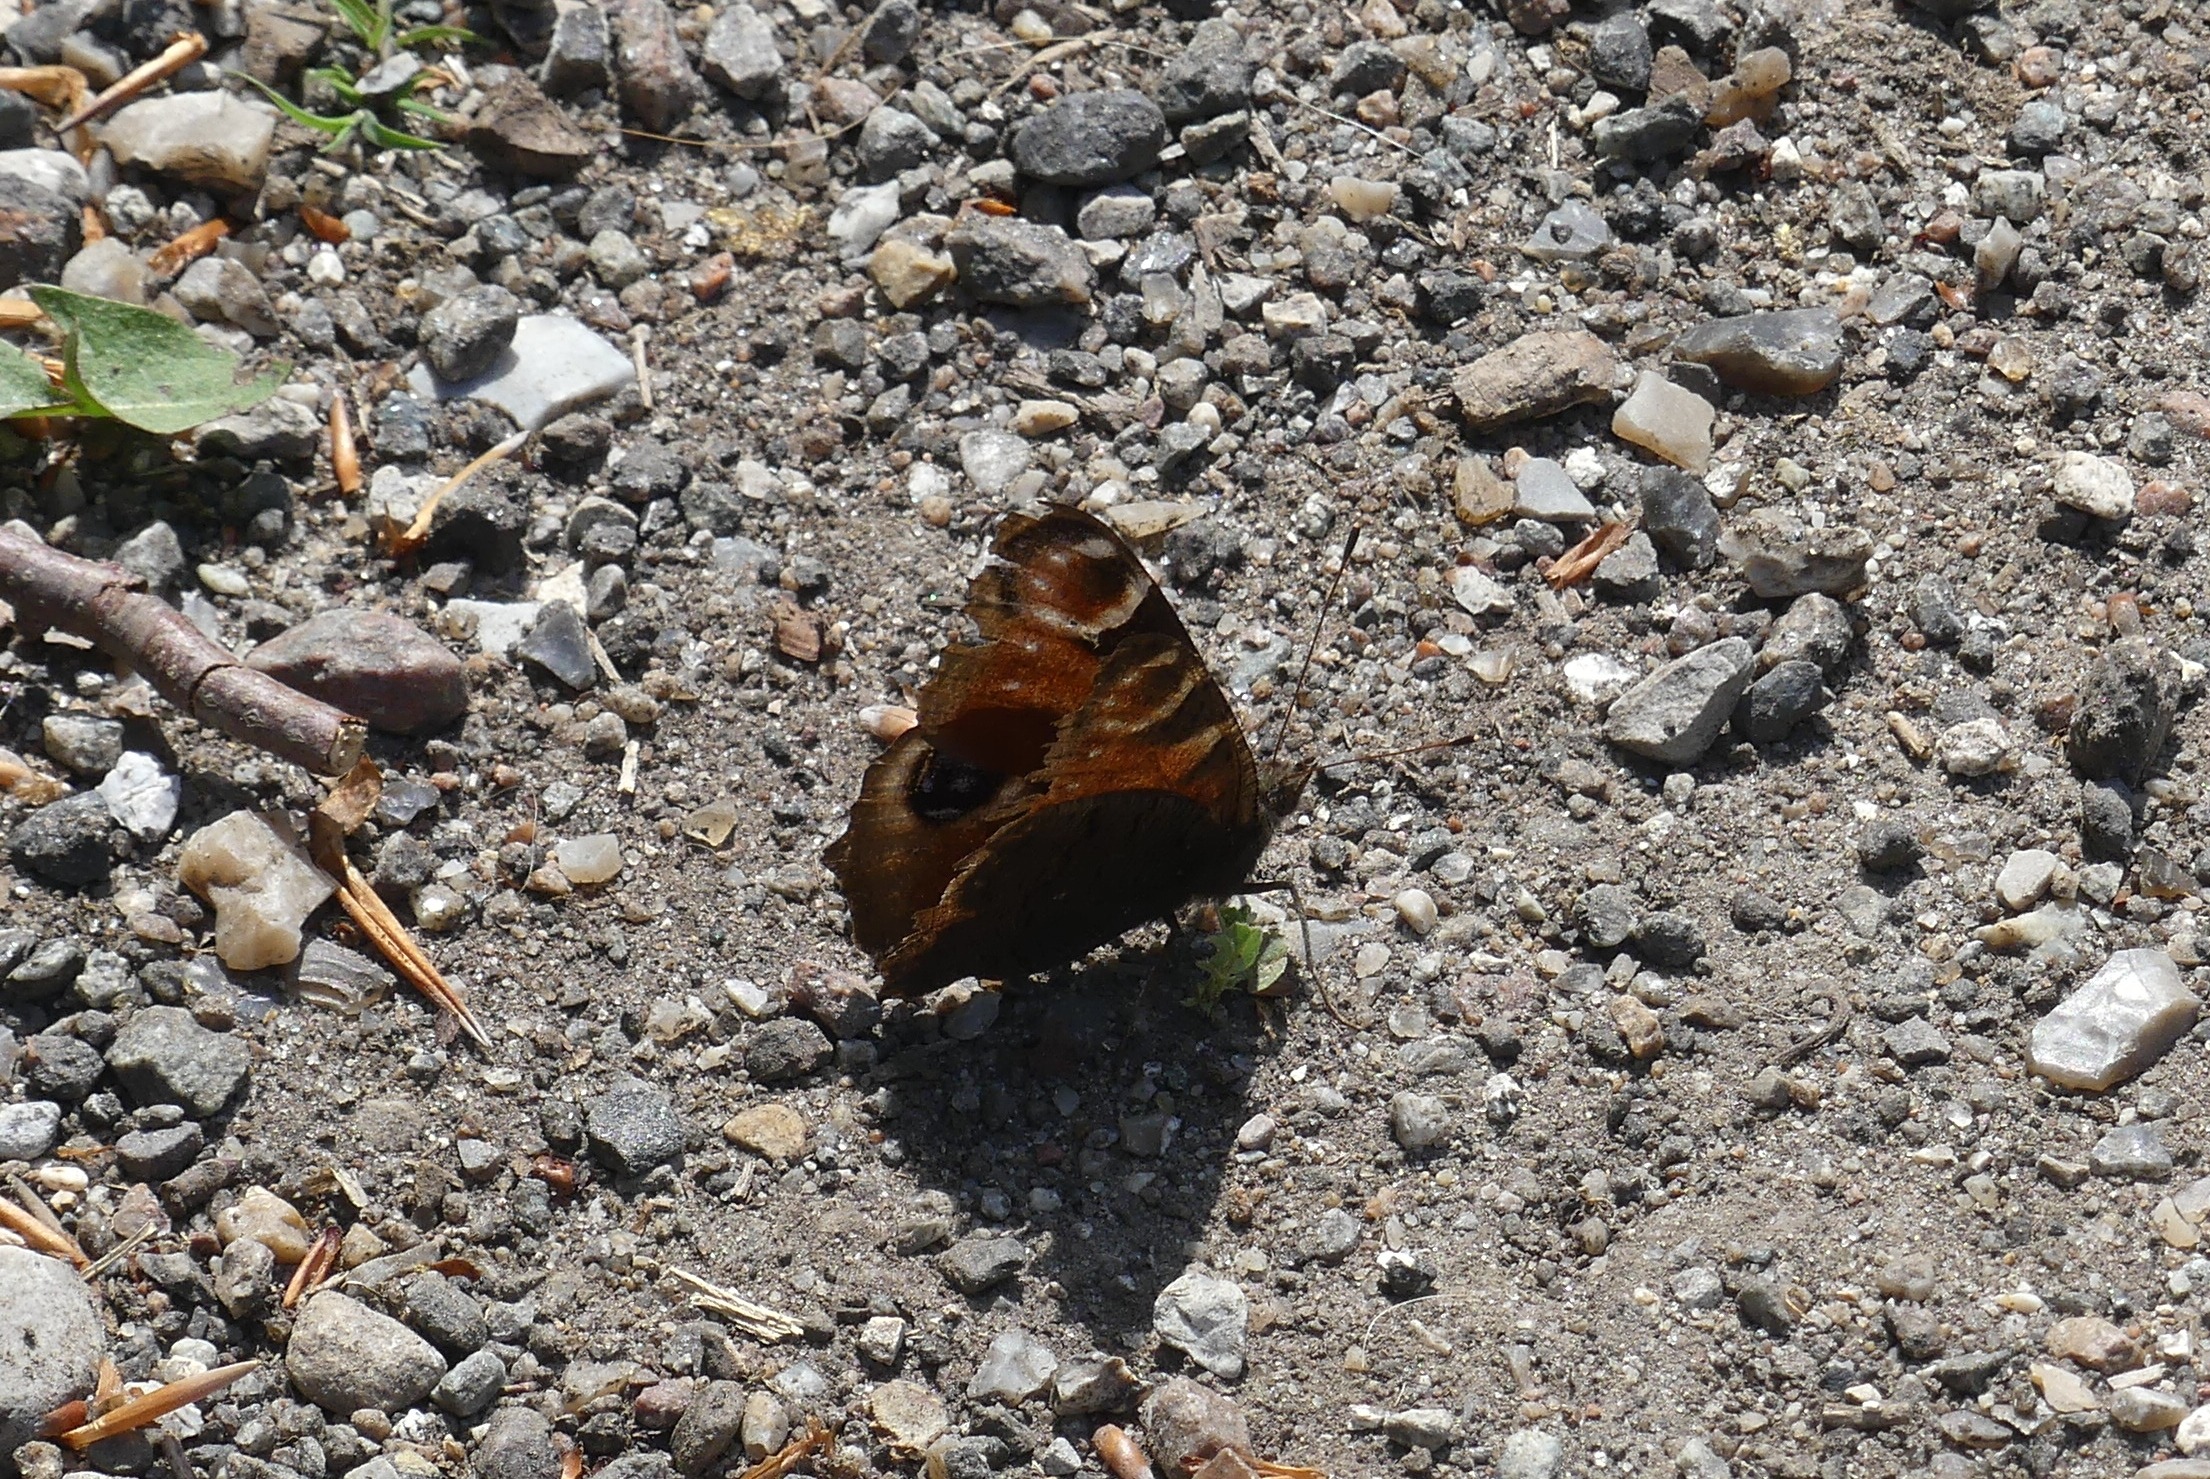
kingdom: Animalia
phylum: Arthropoda
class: Insecta
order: Lepidoptera
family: Nymphalidae
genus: Aglais
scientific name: Aglais io
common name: Dagpåfugleøje
